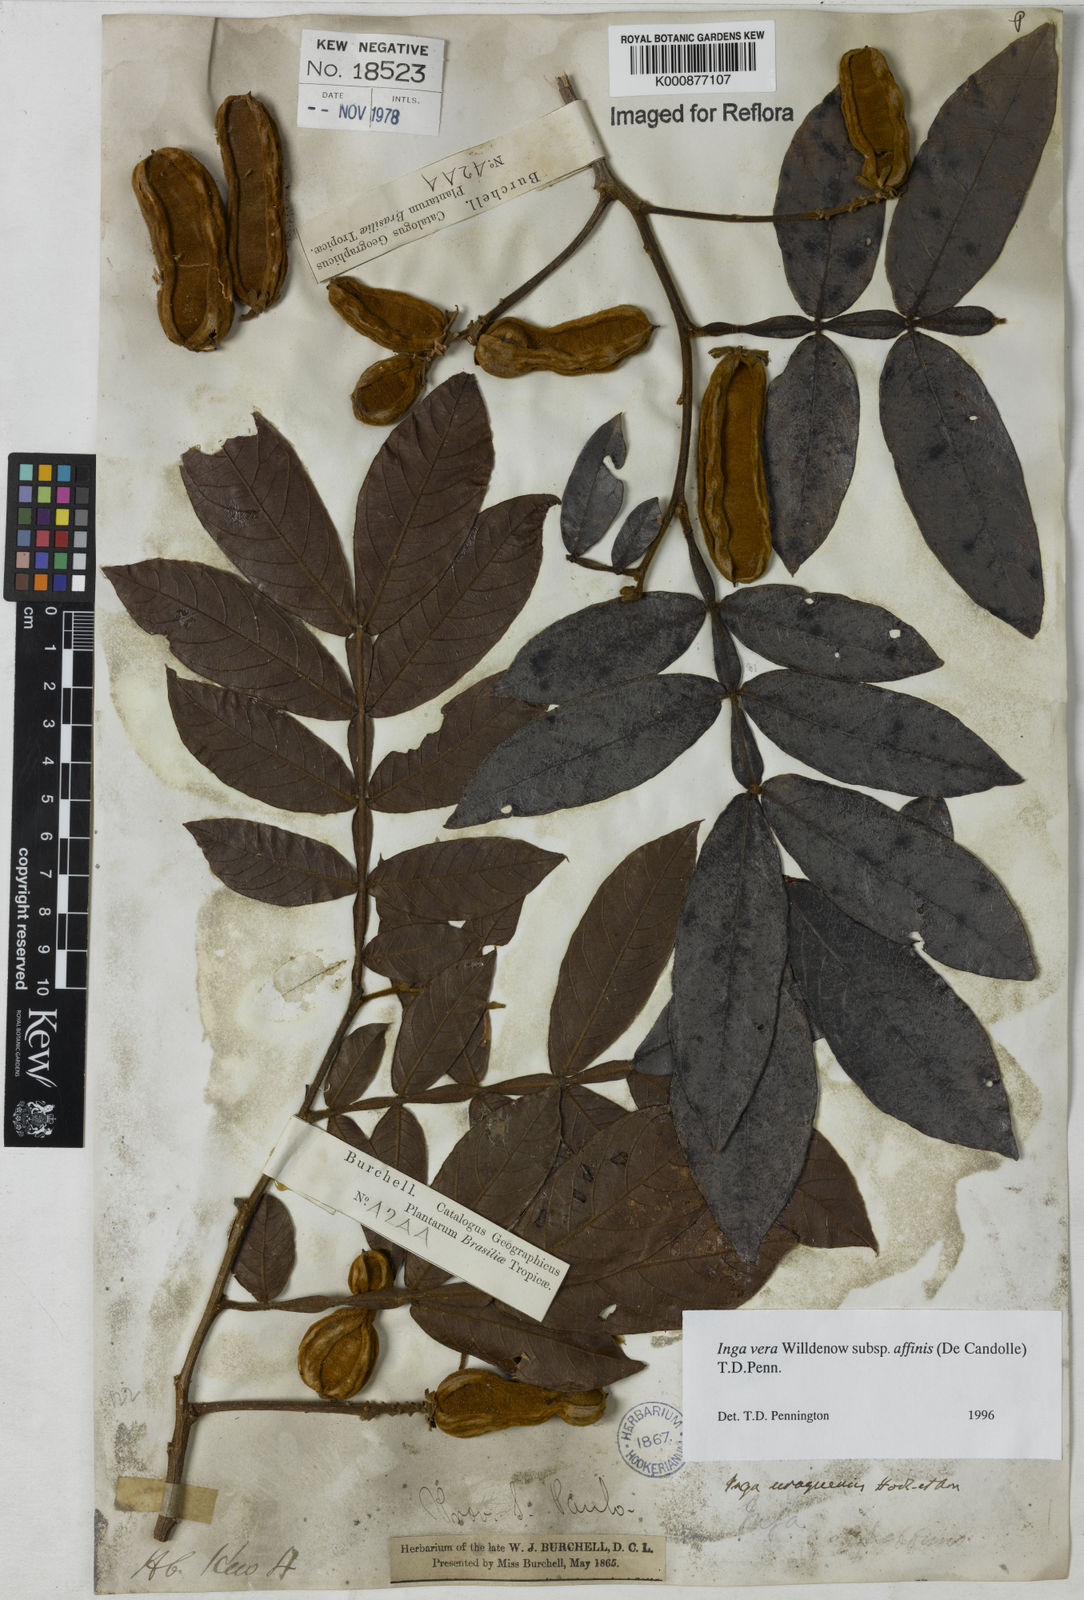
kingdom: Plantae
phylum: Tracheophyta
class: Magnoliopsida
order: Fabales
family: Fabaceae
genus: Inga
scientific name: Inga affinis
